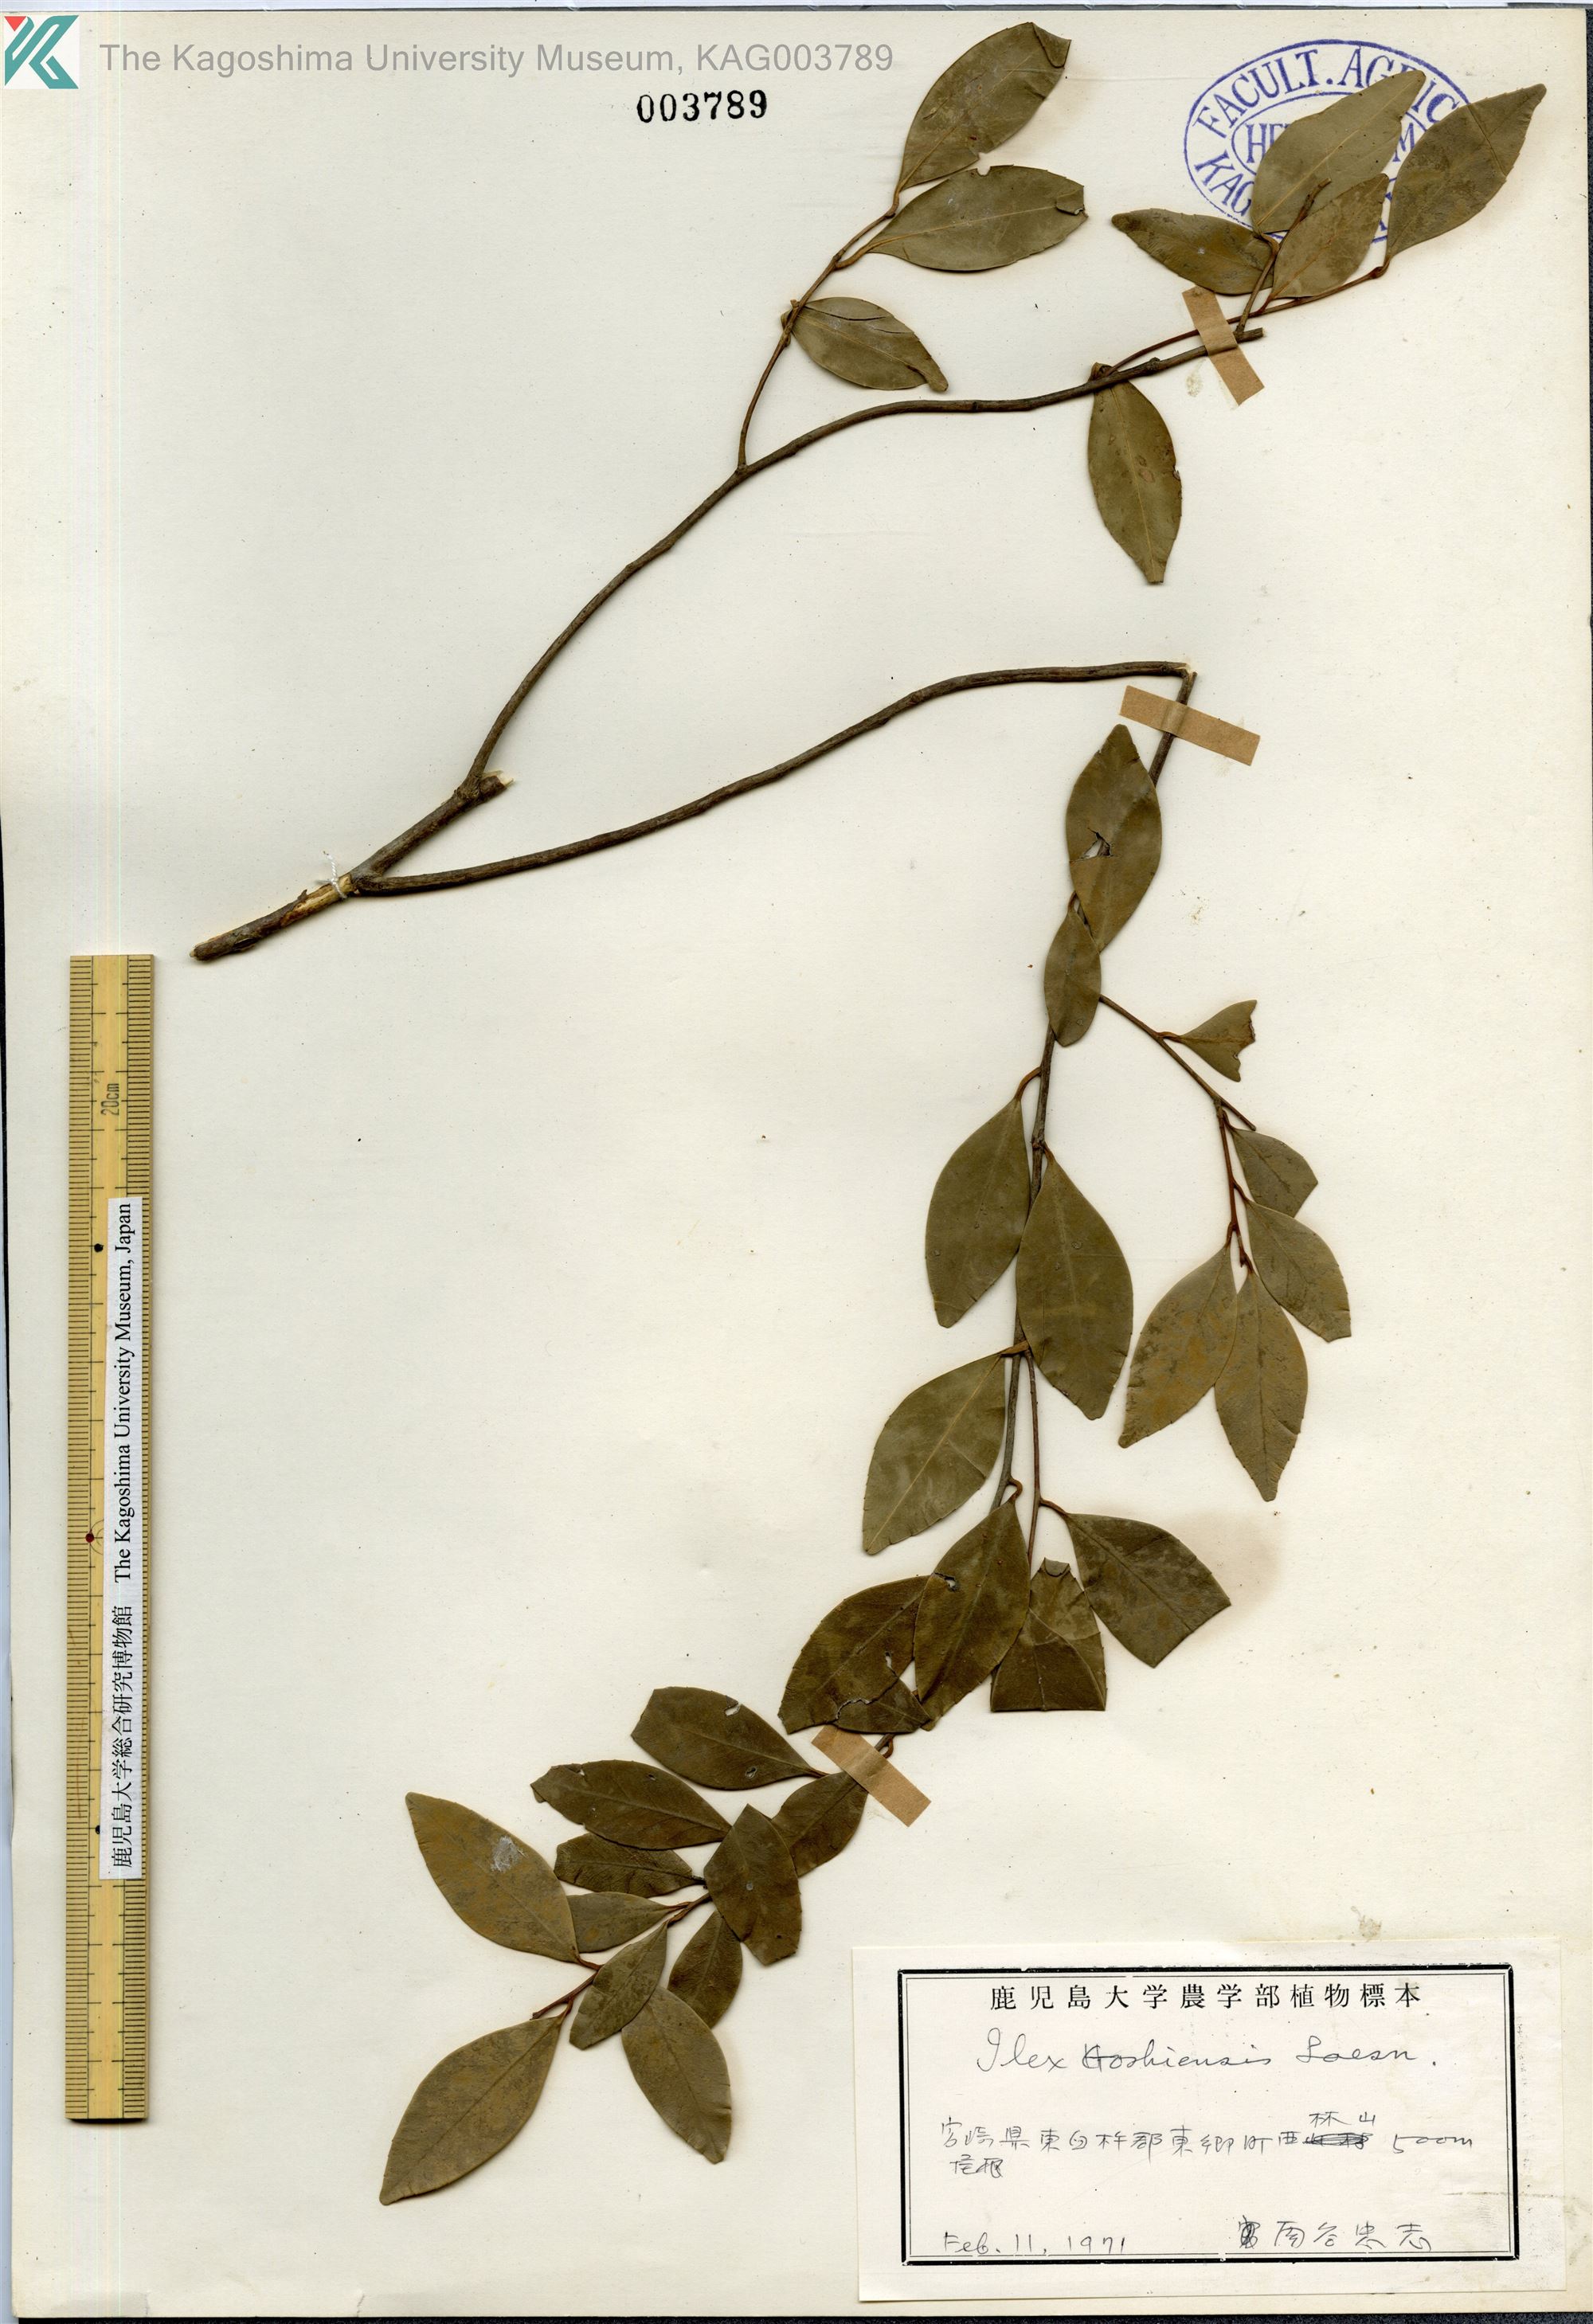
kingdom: Plantae
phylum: Tracheophyta
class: Magnoliopsida
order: Aquifoliales
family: Aquifoliaceae
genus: Ilex
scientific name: Ilex goshiensis
